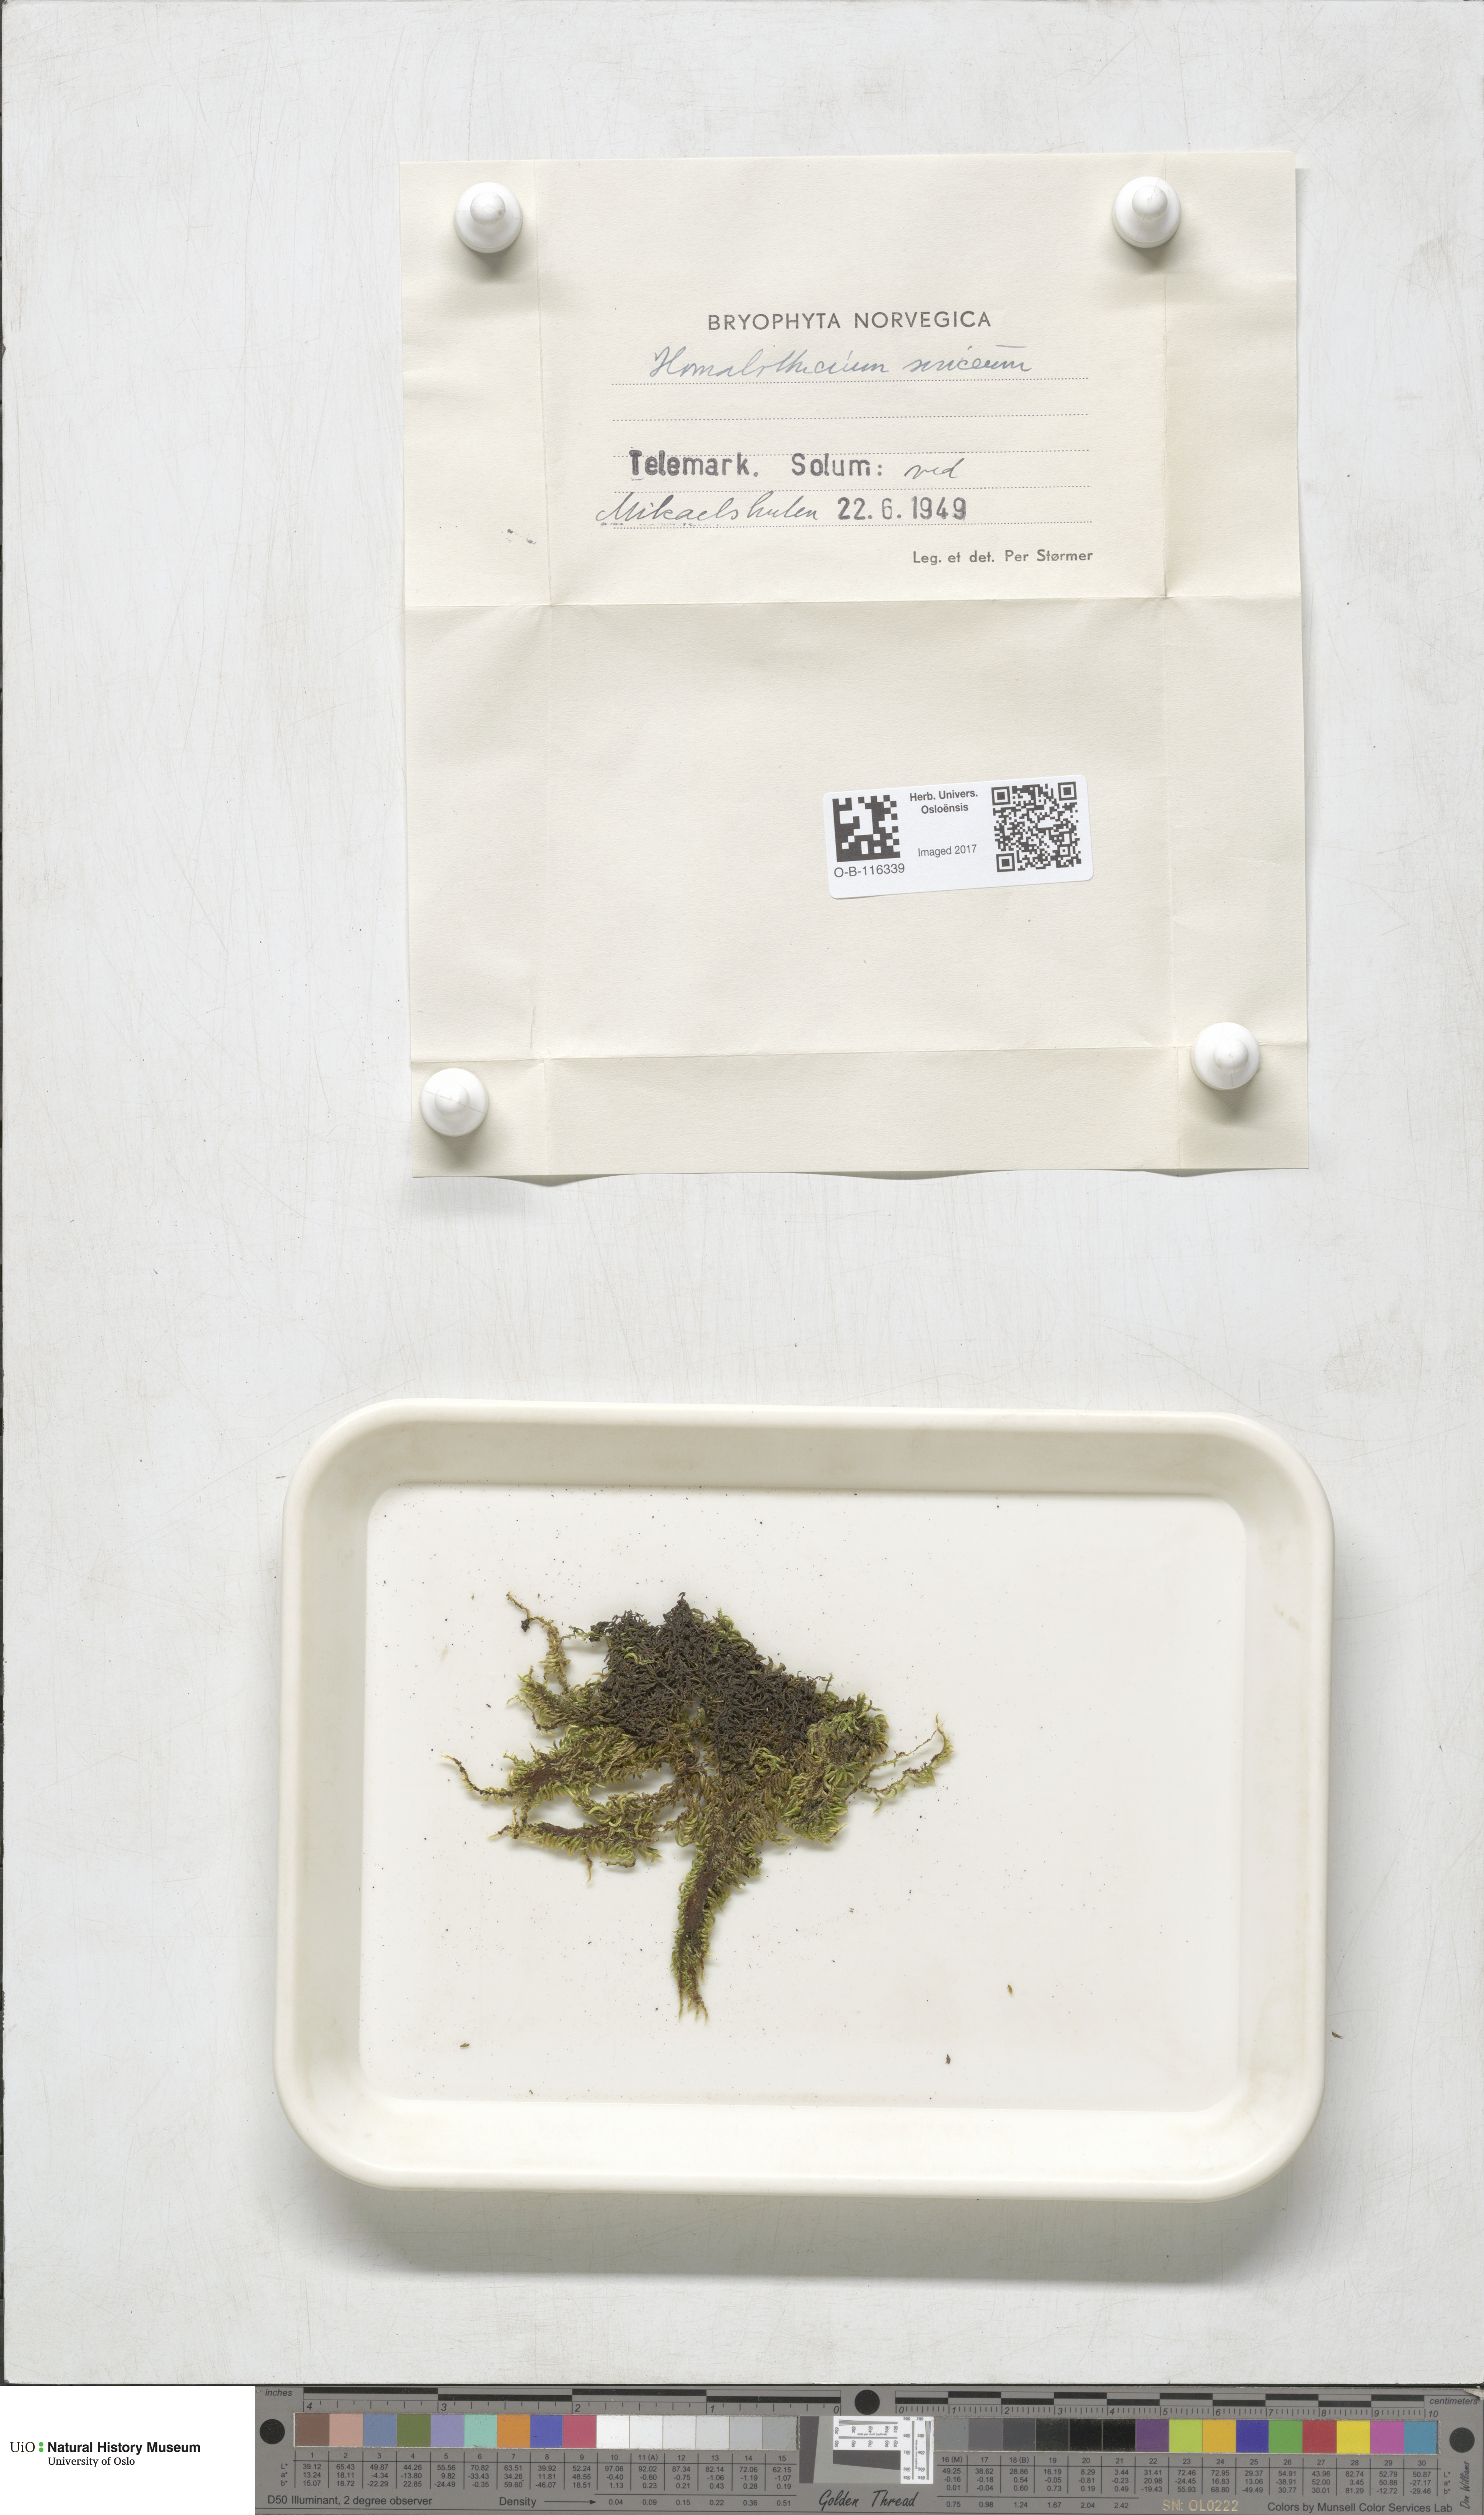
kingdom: Plantae
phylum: Bryophyta
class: Bryopsida
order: Hypnales
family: Brachytheciaceae
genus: Homalothecium
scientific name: Homalothecium sericeum
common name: Silky wall feather-moss
